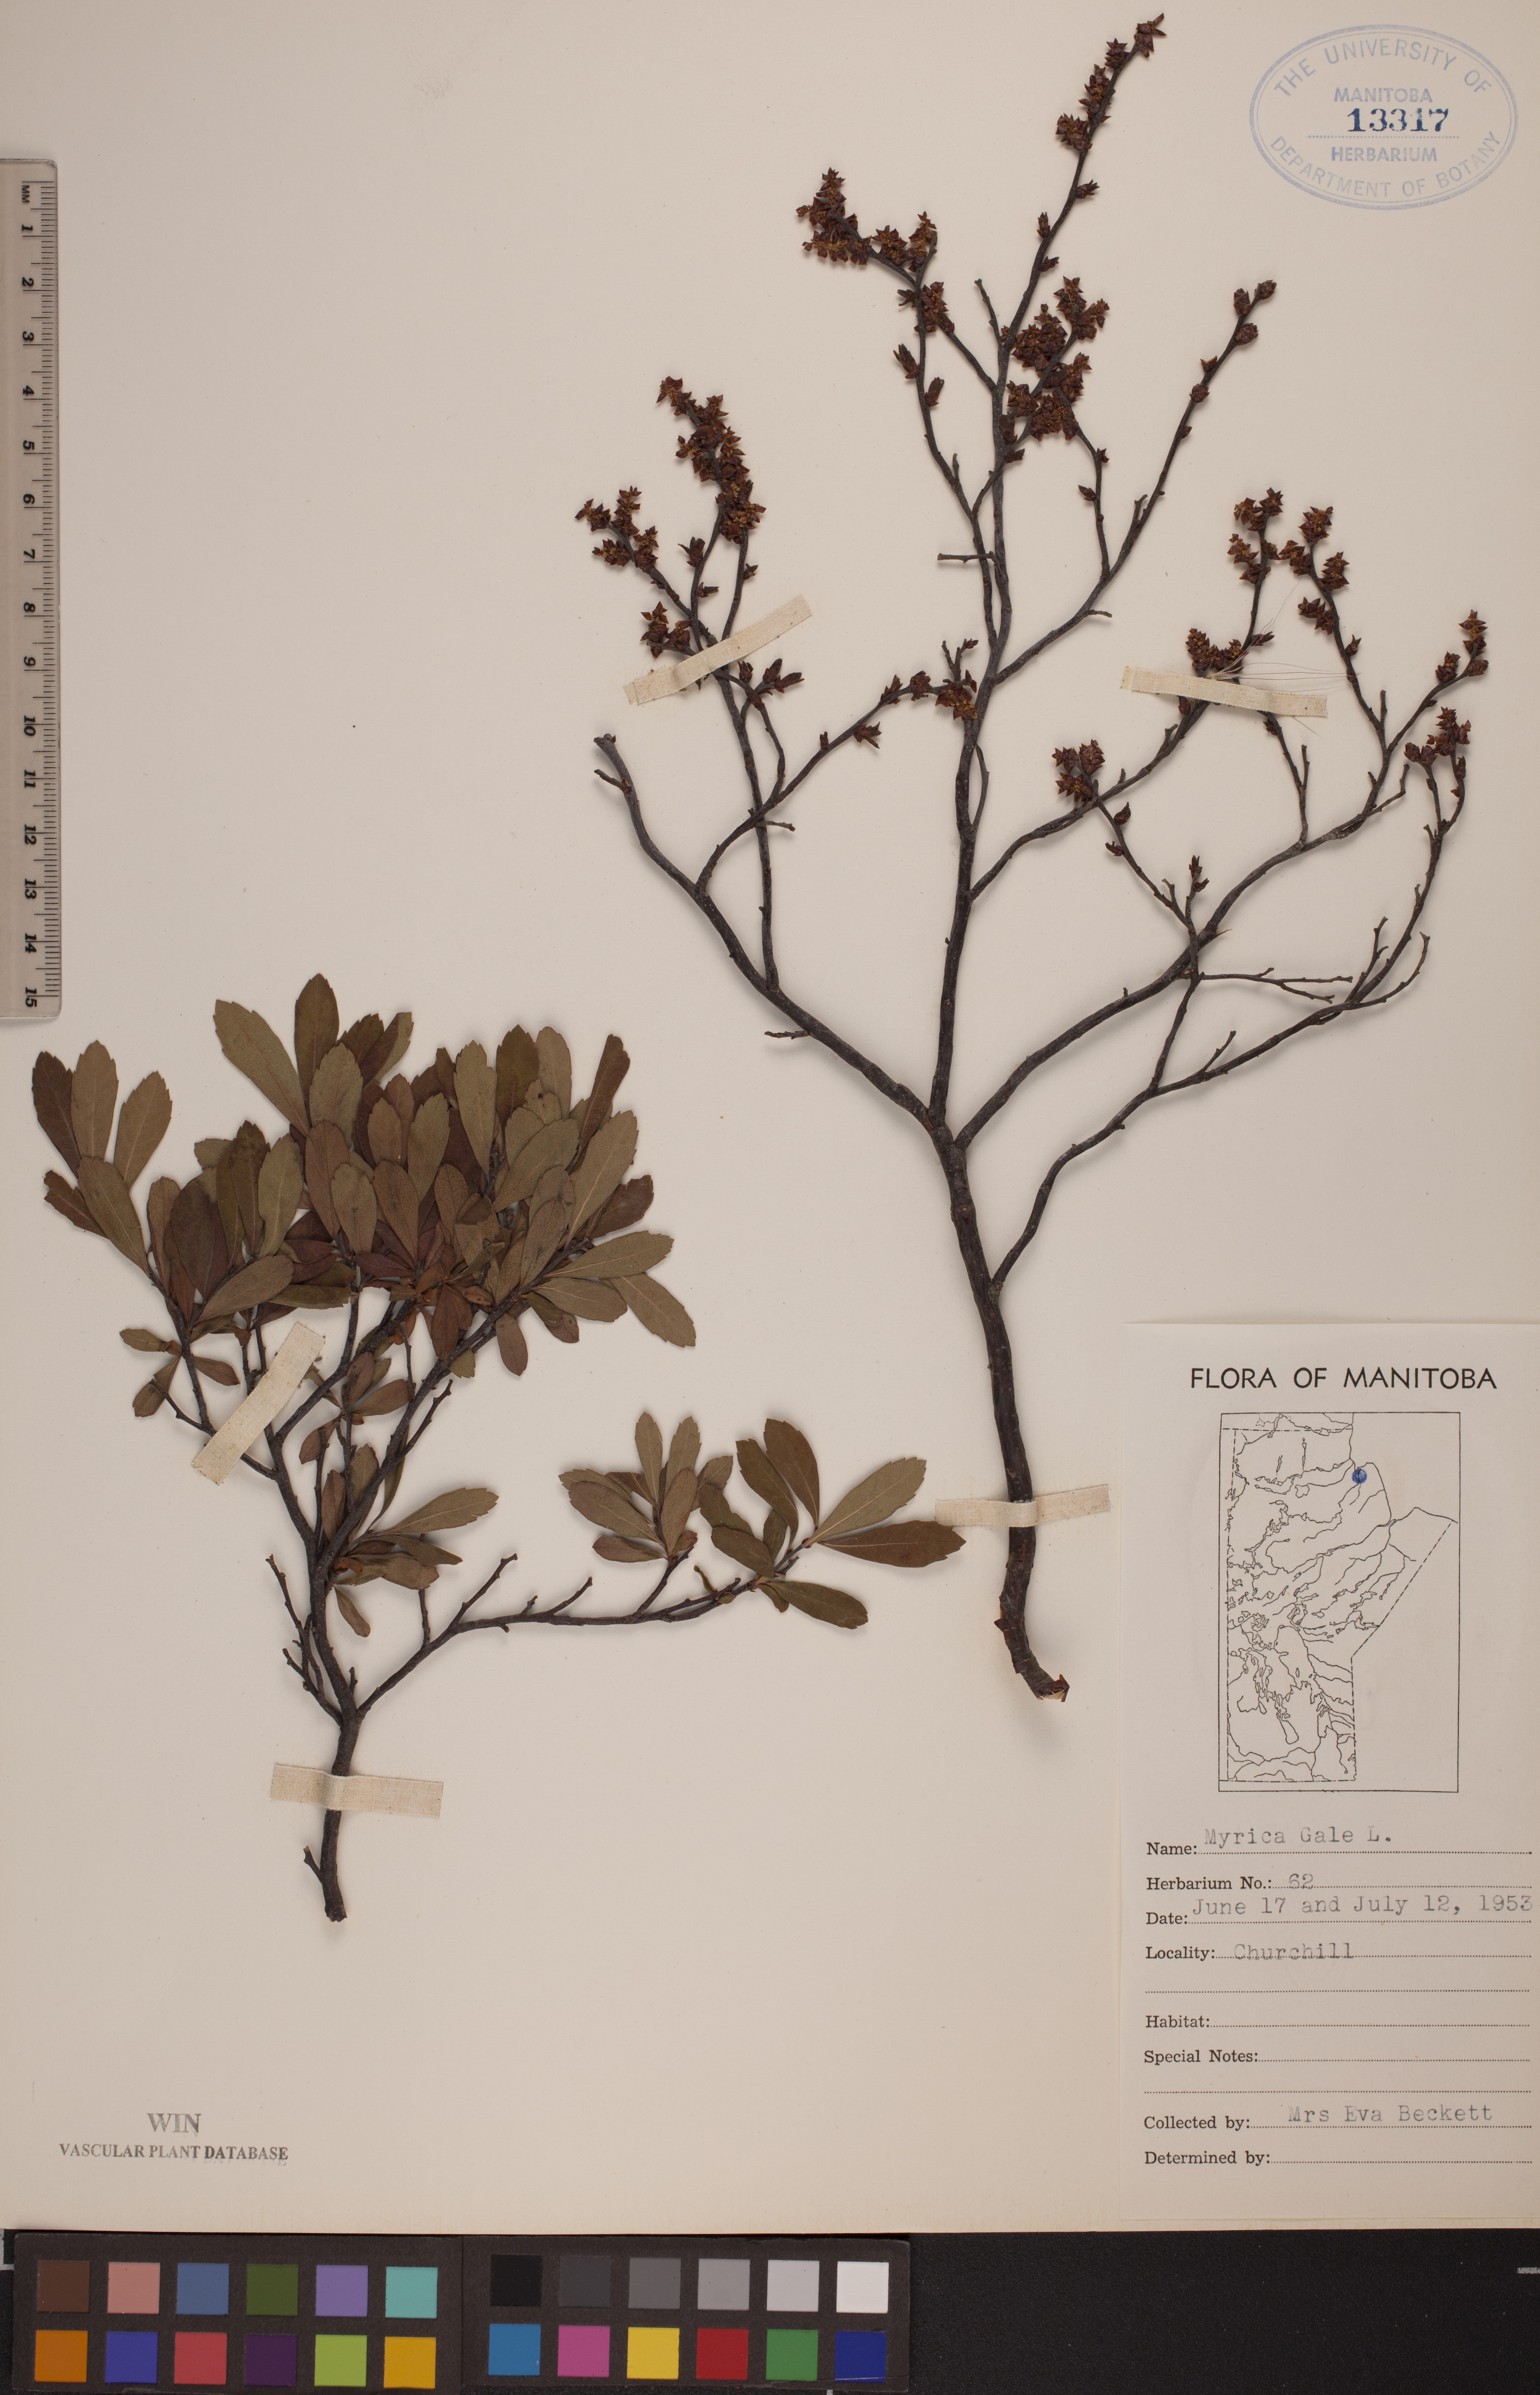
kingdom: Plantae
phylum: Tracheophyta
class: Magnoliopsida
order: Fagales
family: Myricaceae
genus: Myrica
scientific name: Myrica gale
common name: Sweet gale
